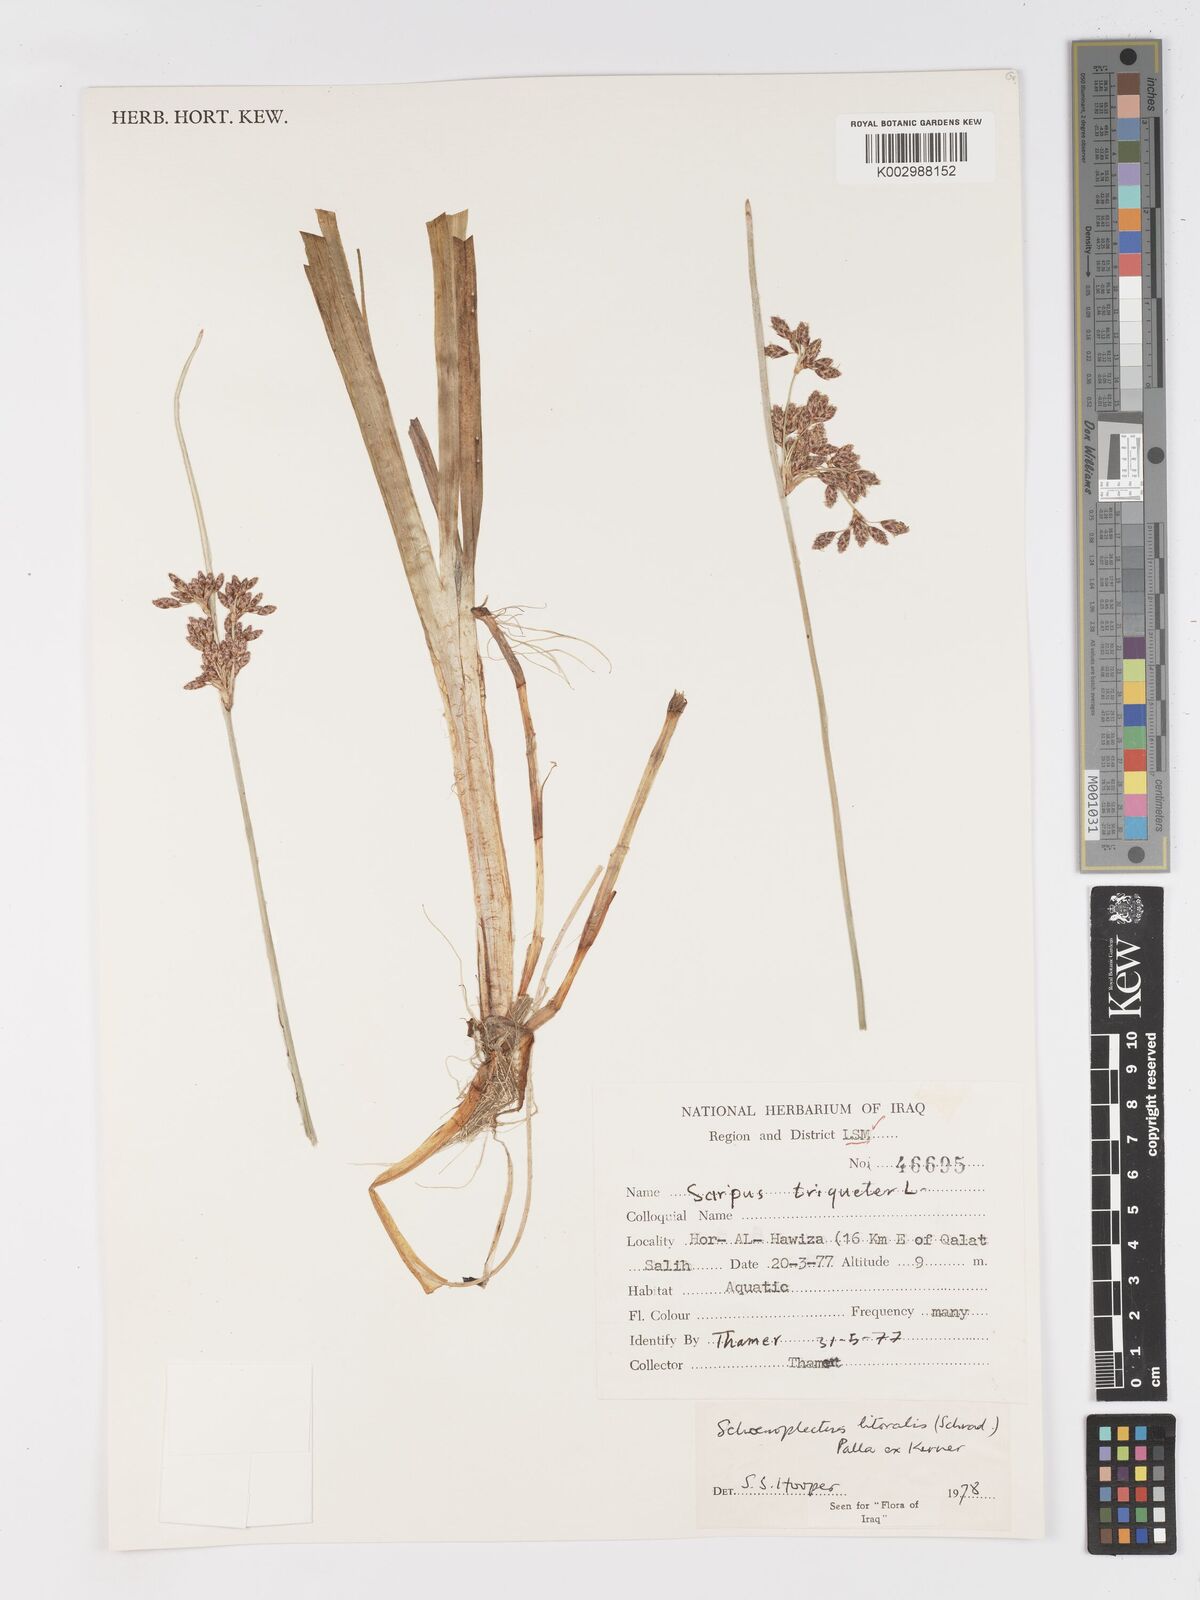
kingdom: Plantae
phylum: Tracheophyta
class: Liliopsida
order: Poales
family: Cyperaceae
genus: Schoenoplectus
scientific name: Schoenoplectus litoralis
